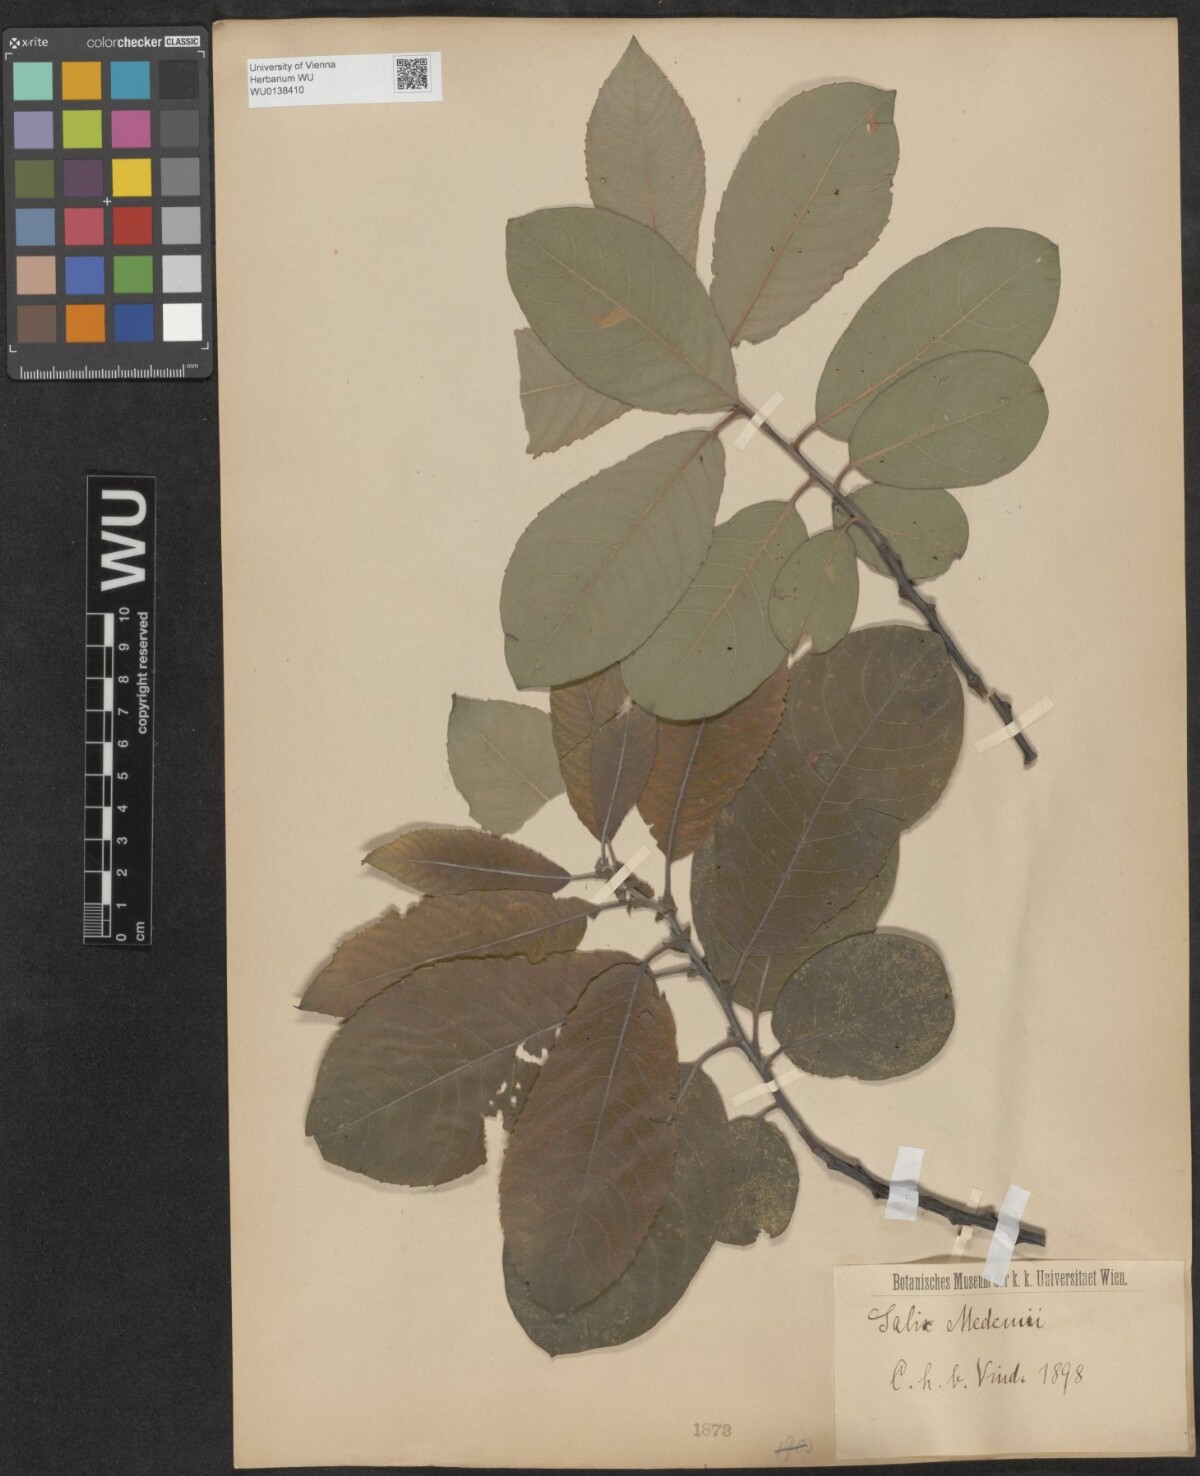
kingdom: Plantae
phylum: Tracheophyta
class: Magnoliopsida
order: Malpighiales
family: Salicaceae
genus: Salix
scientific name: Salix aegyptiaca
